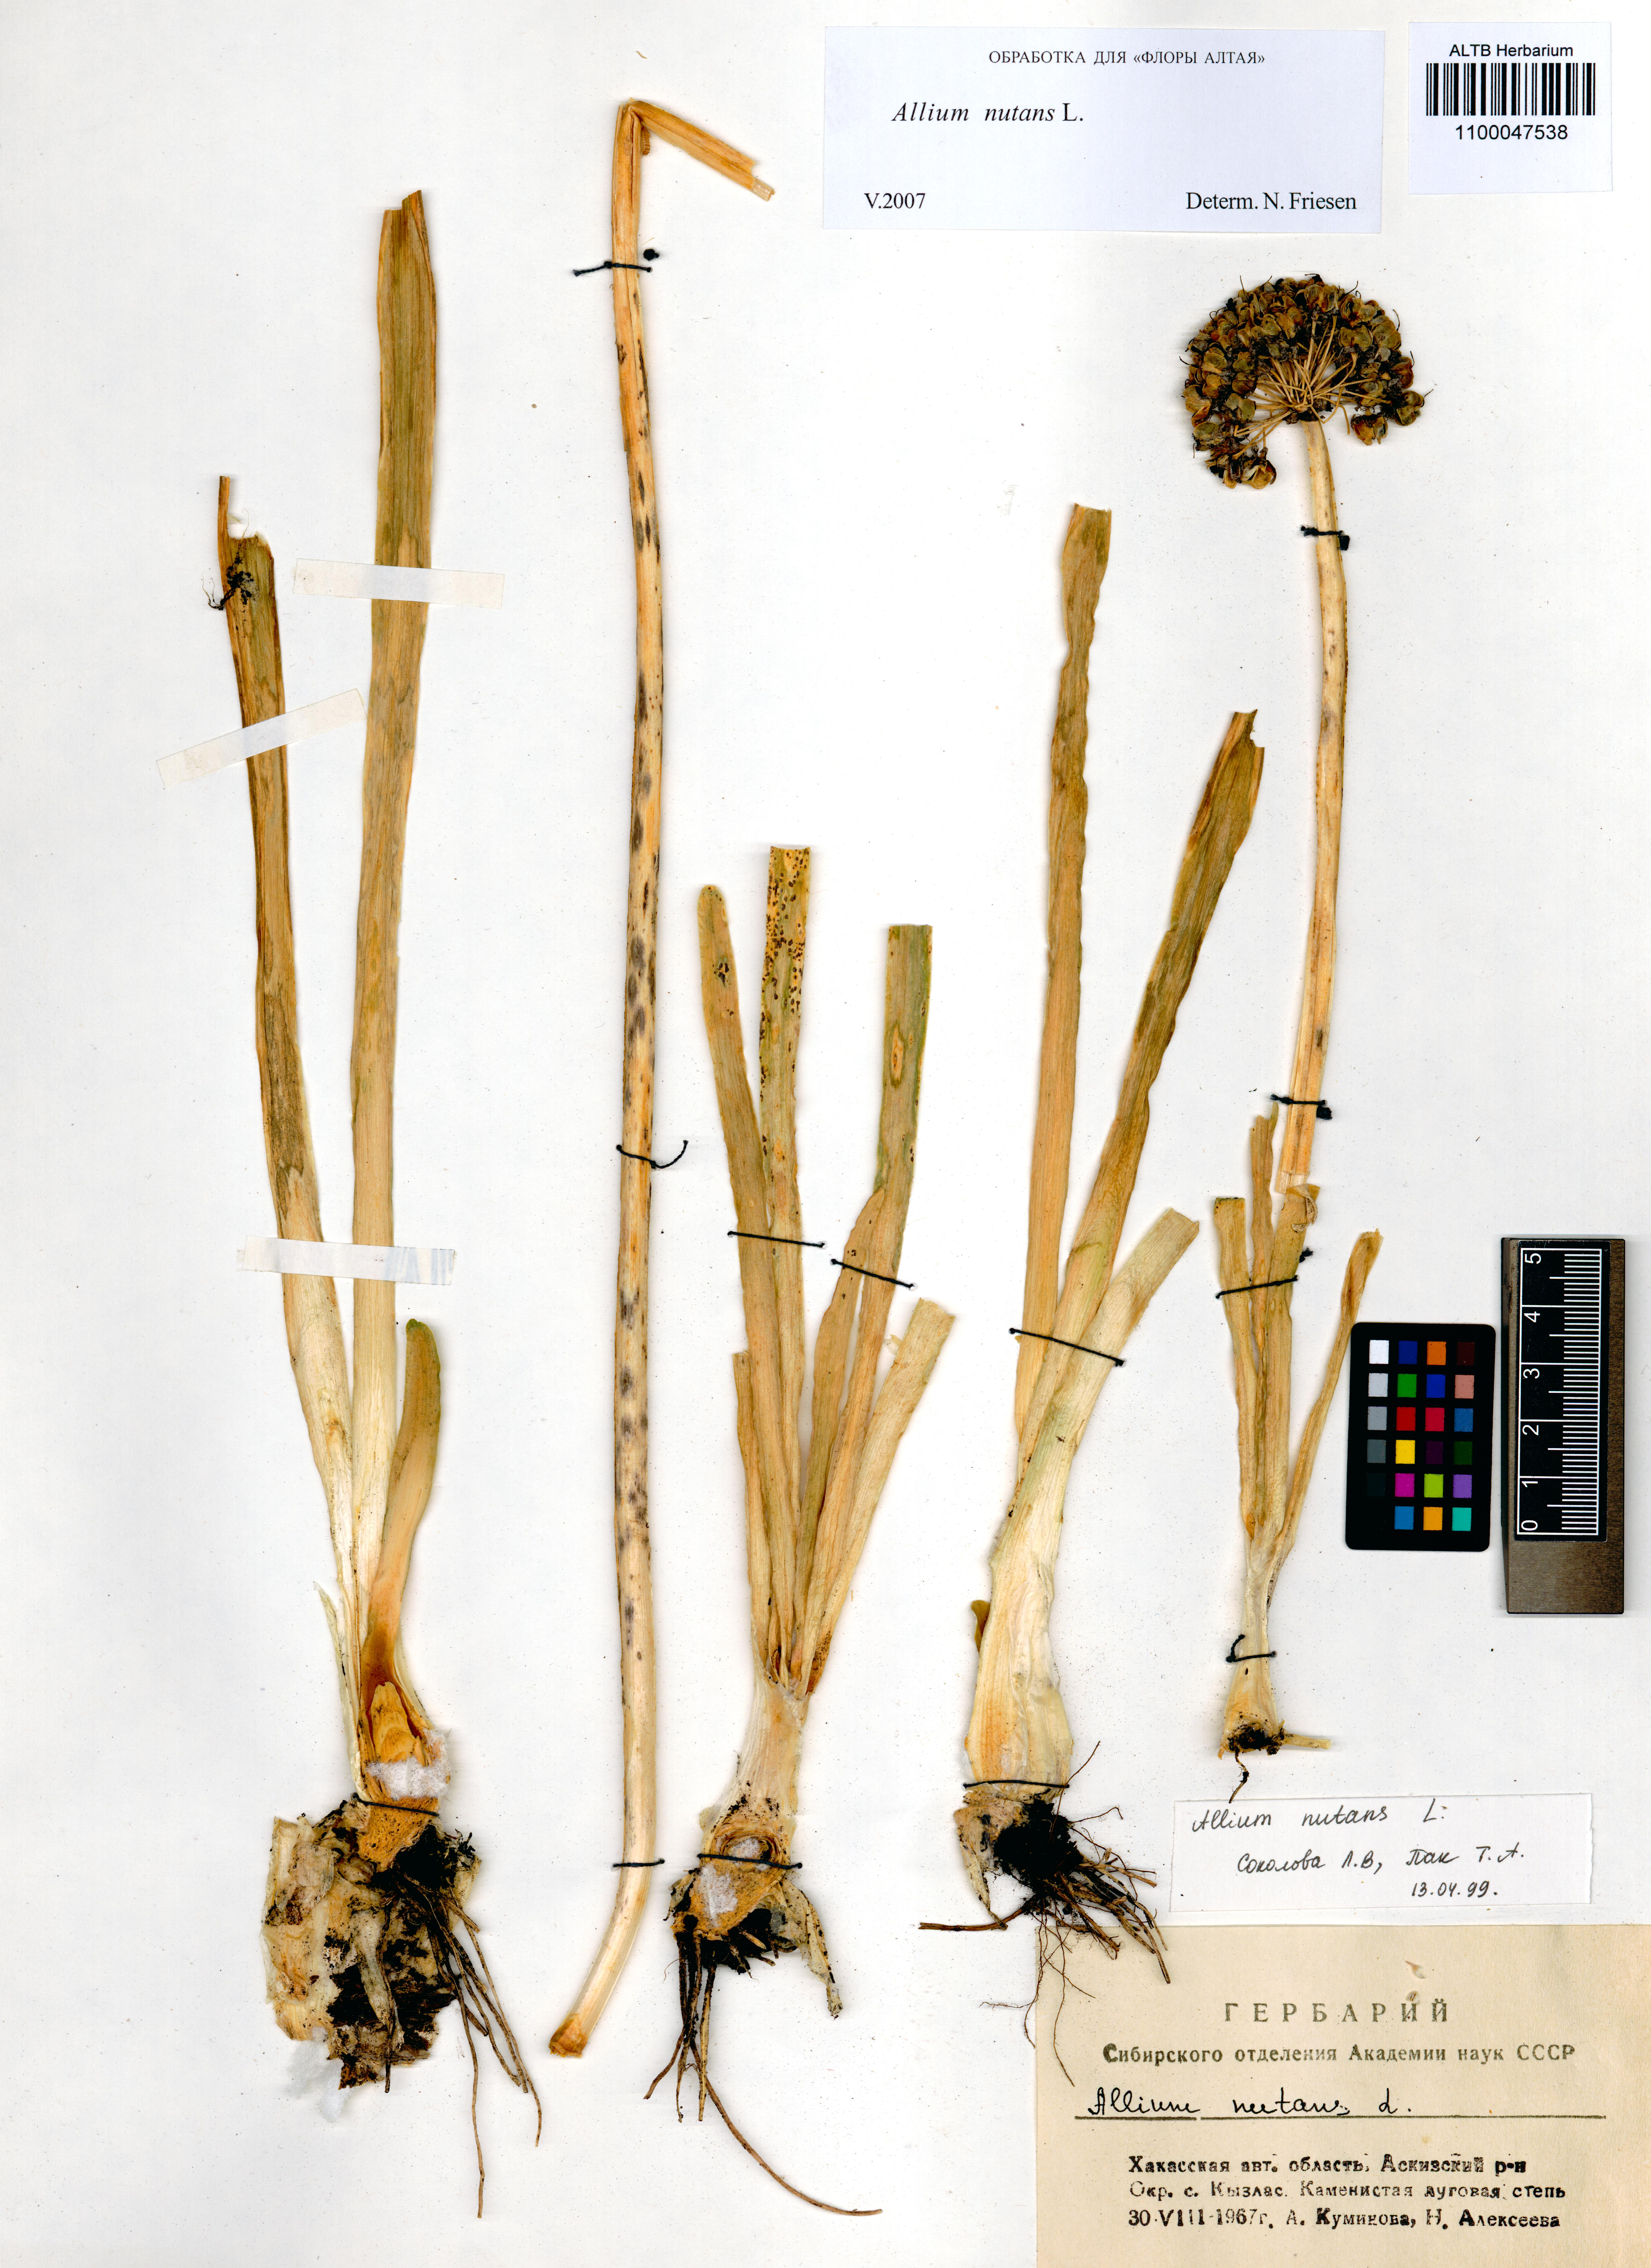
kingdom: Plantae
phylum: Tracheophyta
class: Liliopsida
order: Asparagales
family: Amaryllidaceae
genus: Allium
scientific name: Allium nutans
